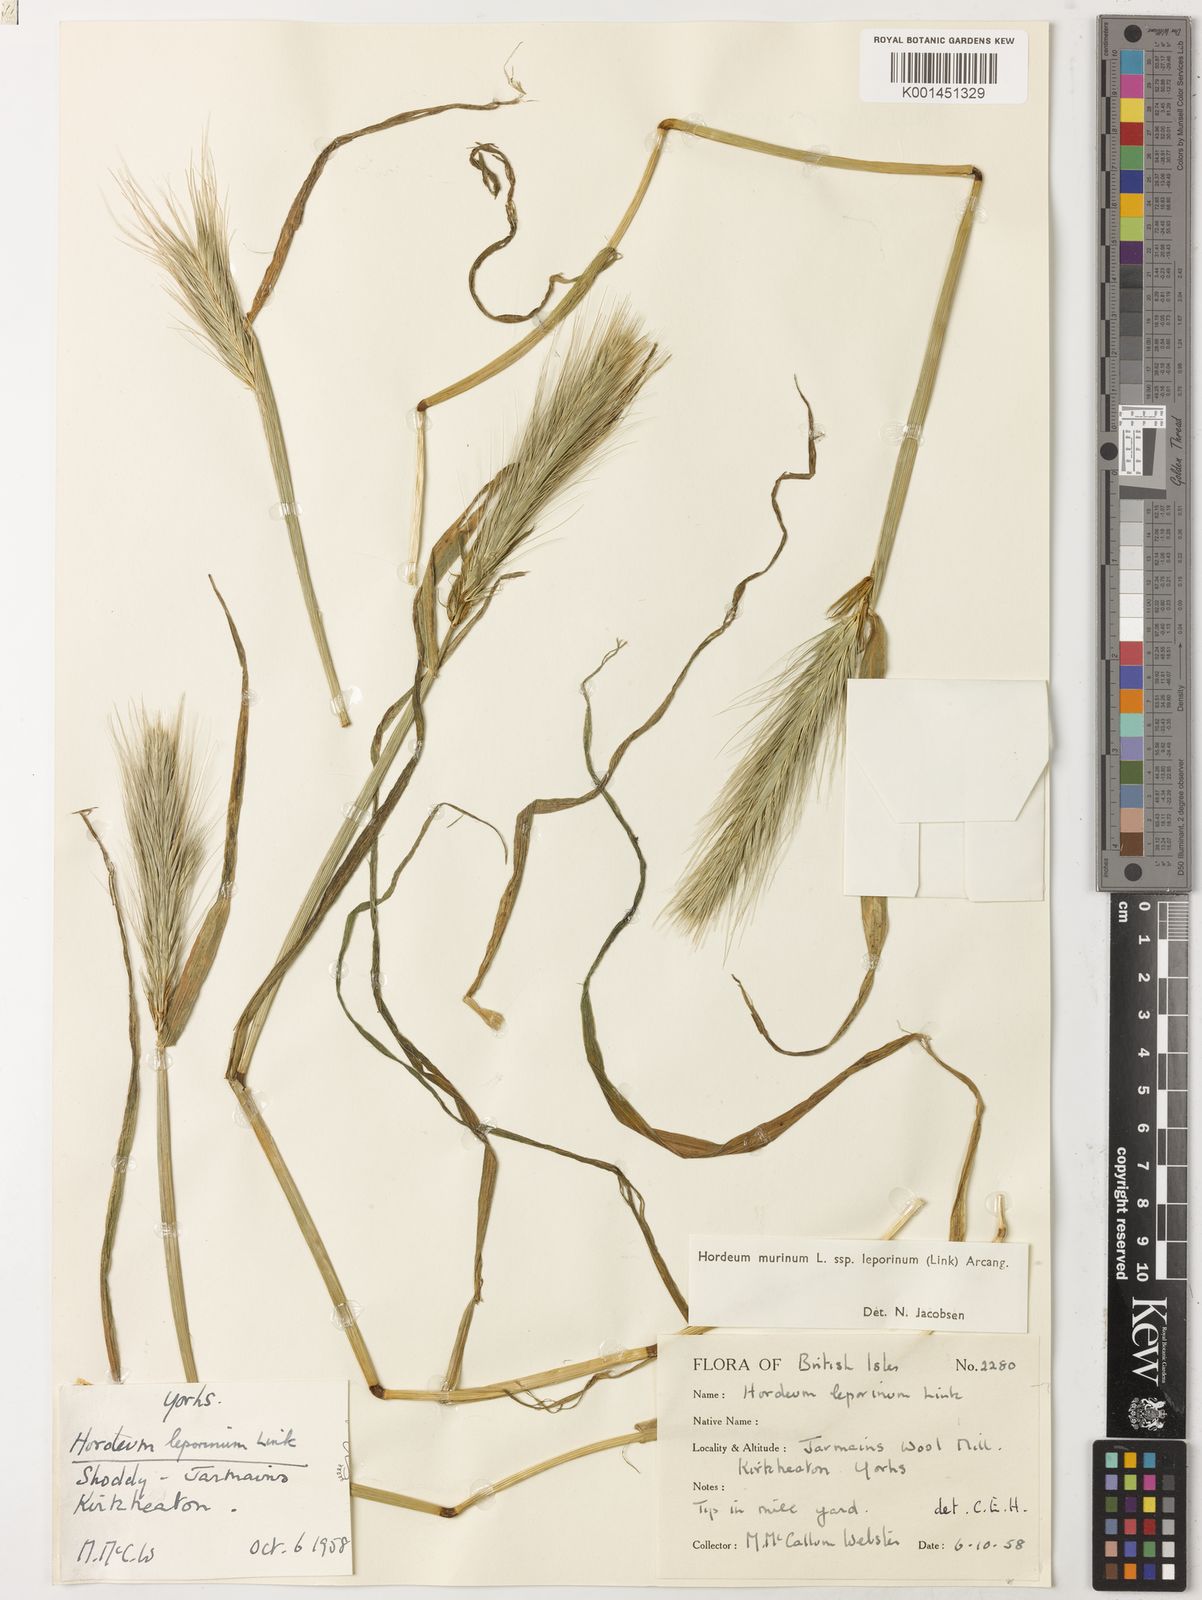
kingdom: Plantae
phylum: Tracheophyta
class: Liliopsida
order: Poales
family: Poaceae
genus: Hordeum
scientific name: Hordeum murinum
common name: Wall barley
